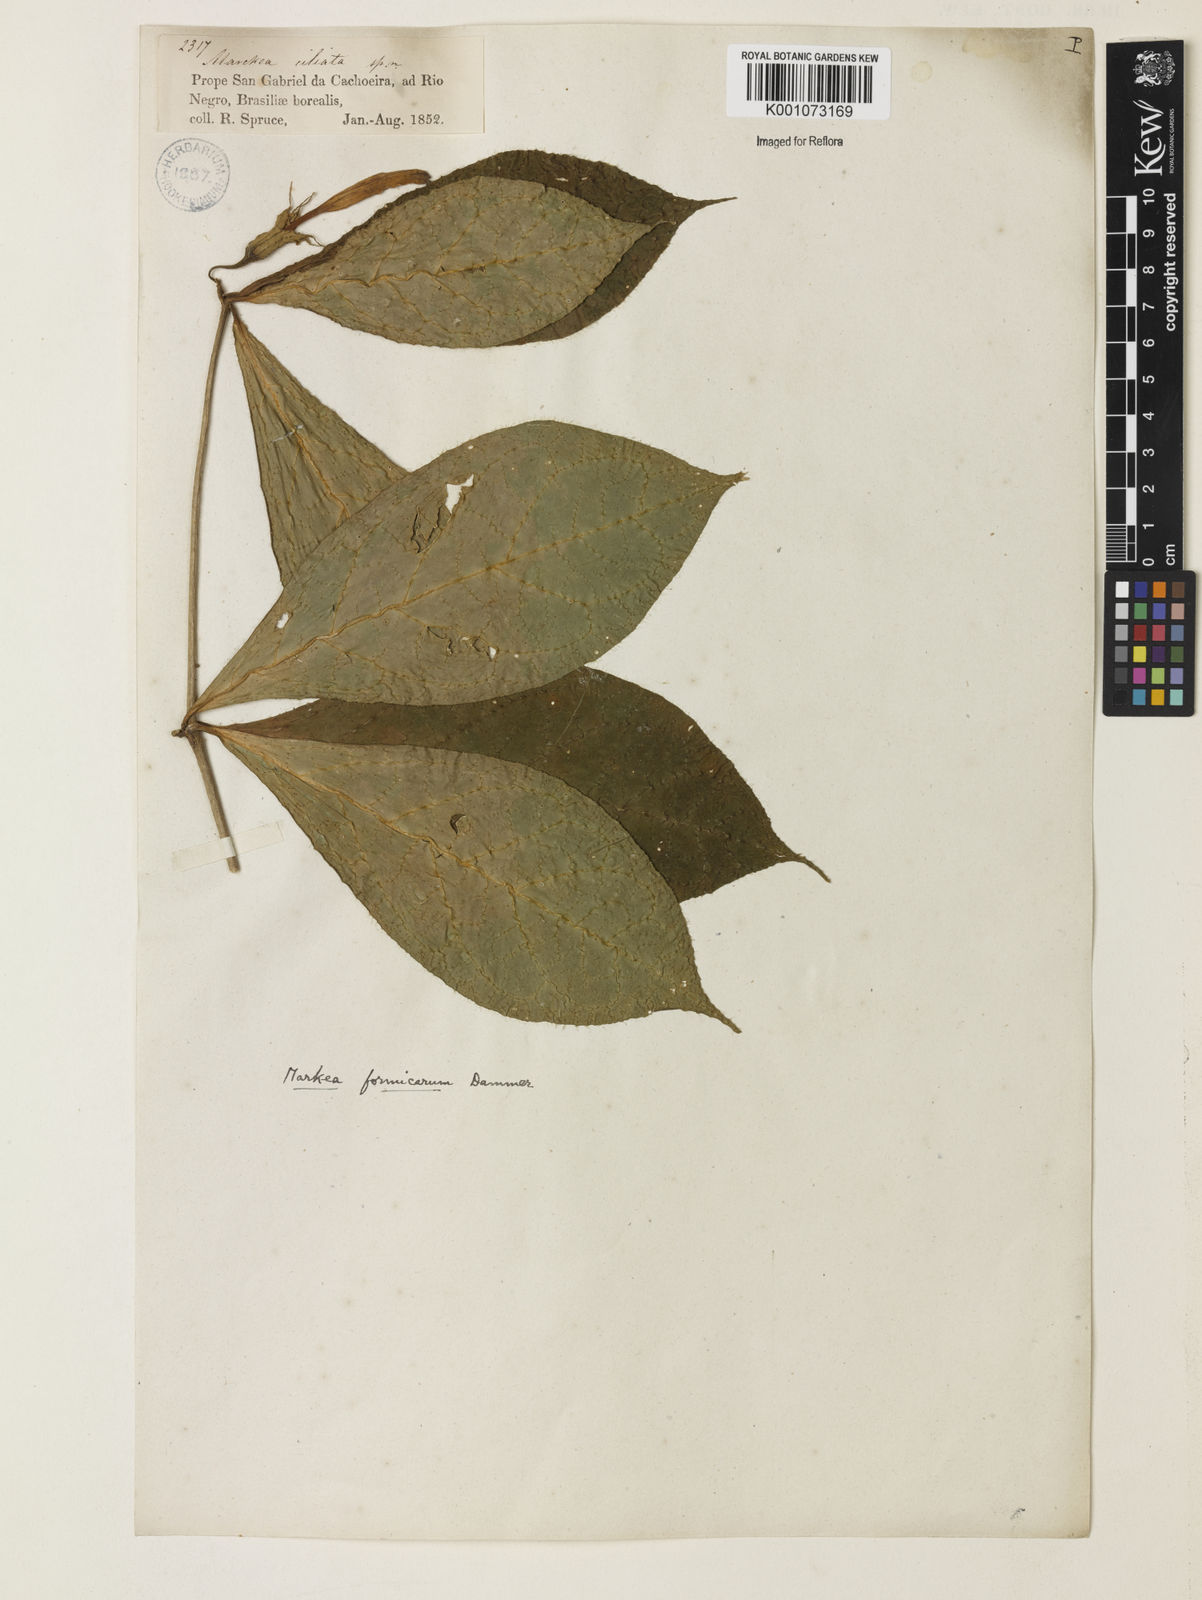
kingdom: Plantae
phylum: Tracheophyta
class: Magnoliopsida
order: Solanales
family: Solanaceae
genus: Markea
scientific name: Markea formicarum
